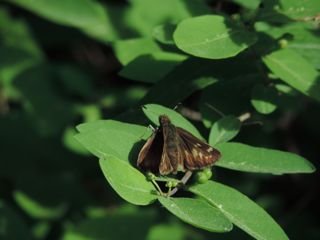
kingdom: Animalia
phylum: Arthropoda
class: Insecta
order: Lepidoptera
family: Hesperiidae
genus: Vernia
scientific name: Vernia verna
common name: Little Glassywing
